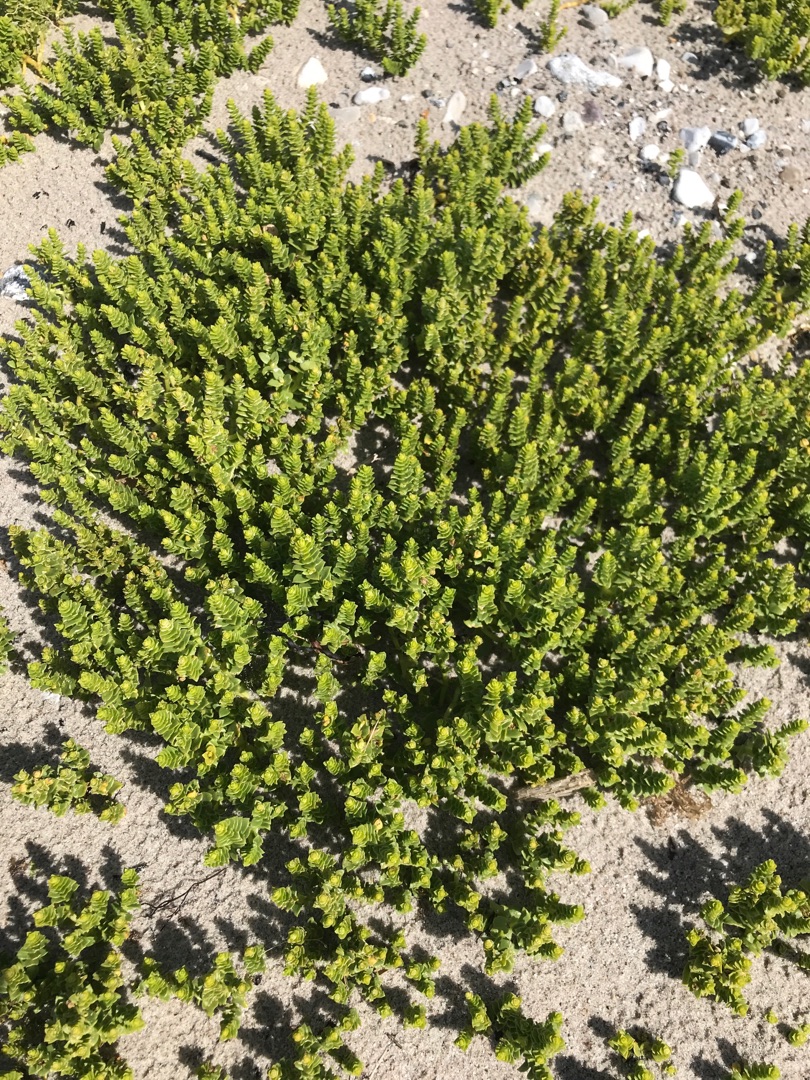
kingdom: Plantae
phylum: Tracheophyta
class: Magnoliopsida
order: Caryophyllales
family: Caryophyllaceae
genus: Honckenya
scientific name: Honckenya peploides
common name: Strandarve
